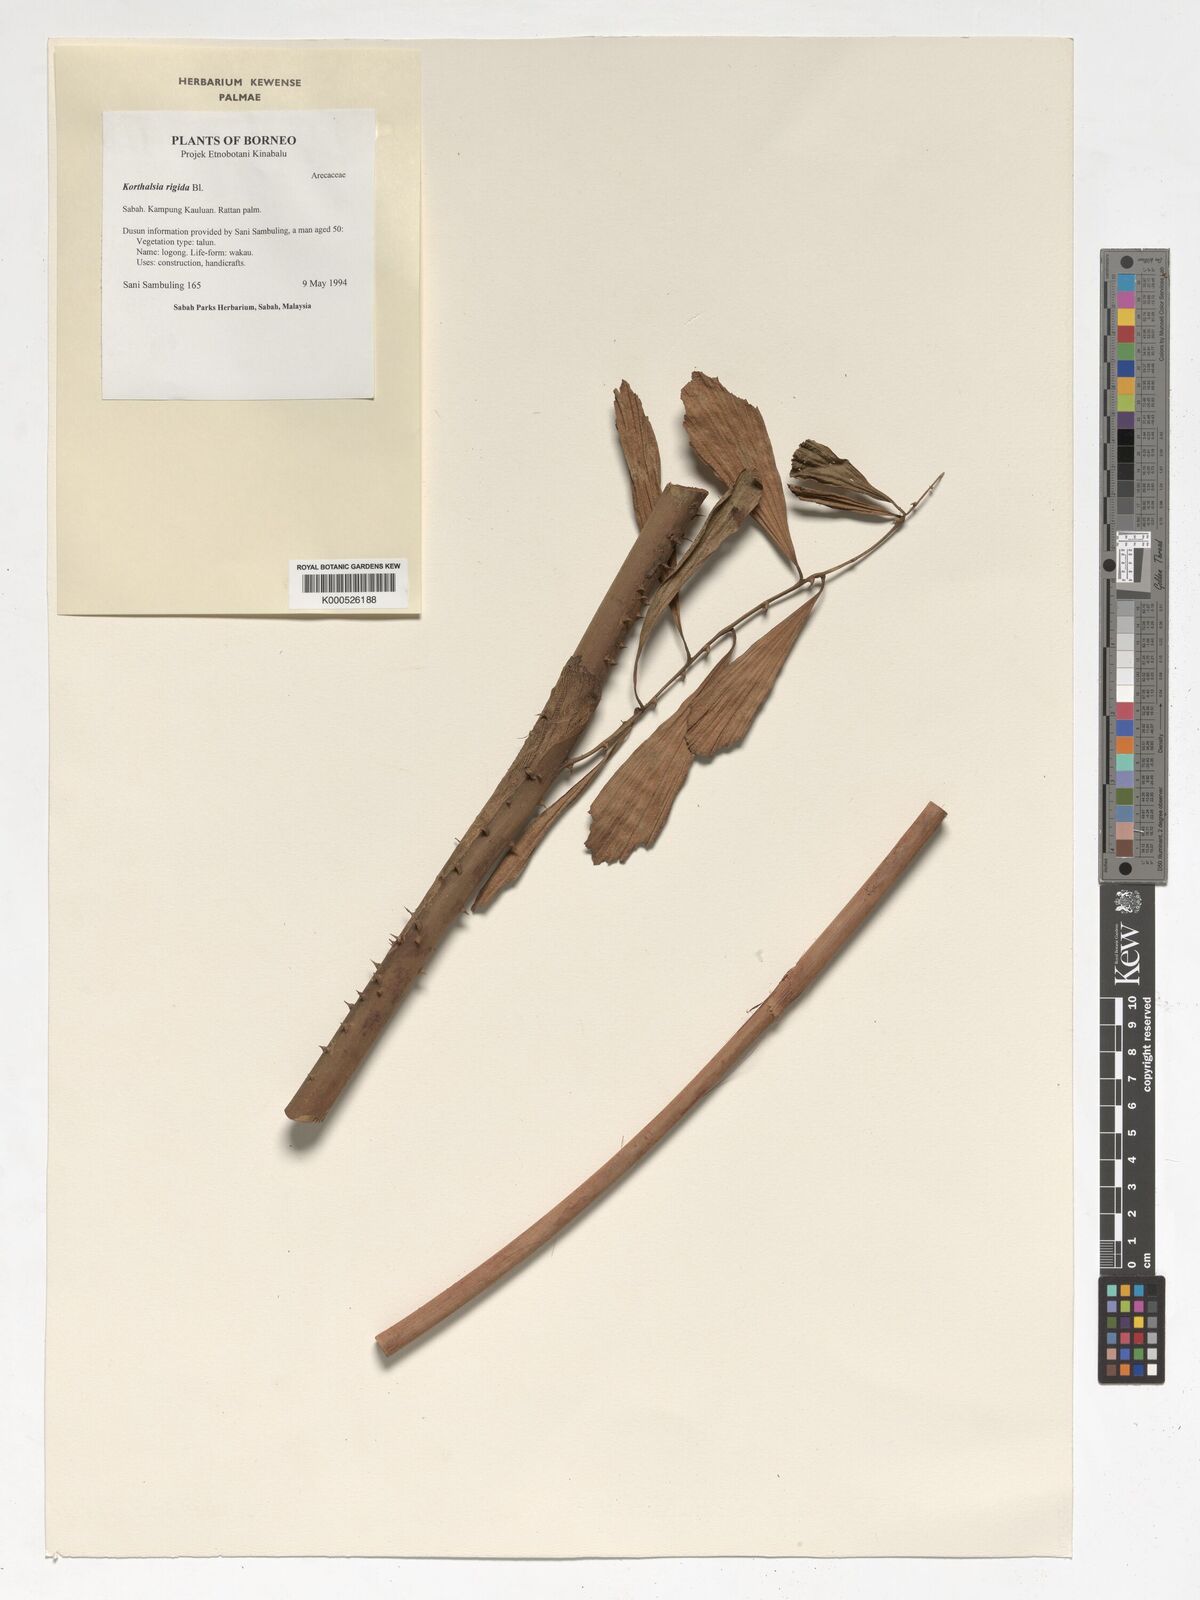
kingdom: Plantae
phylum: Tracheophyta
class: Liliopsida
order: Arecales
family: Arecaceae
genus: Korthalsia
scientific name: Korthalsia rigida
